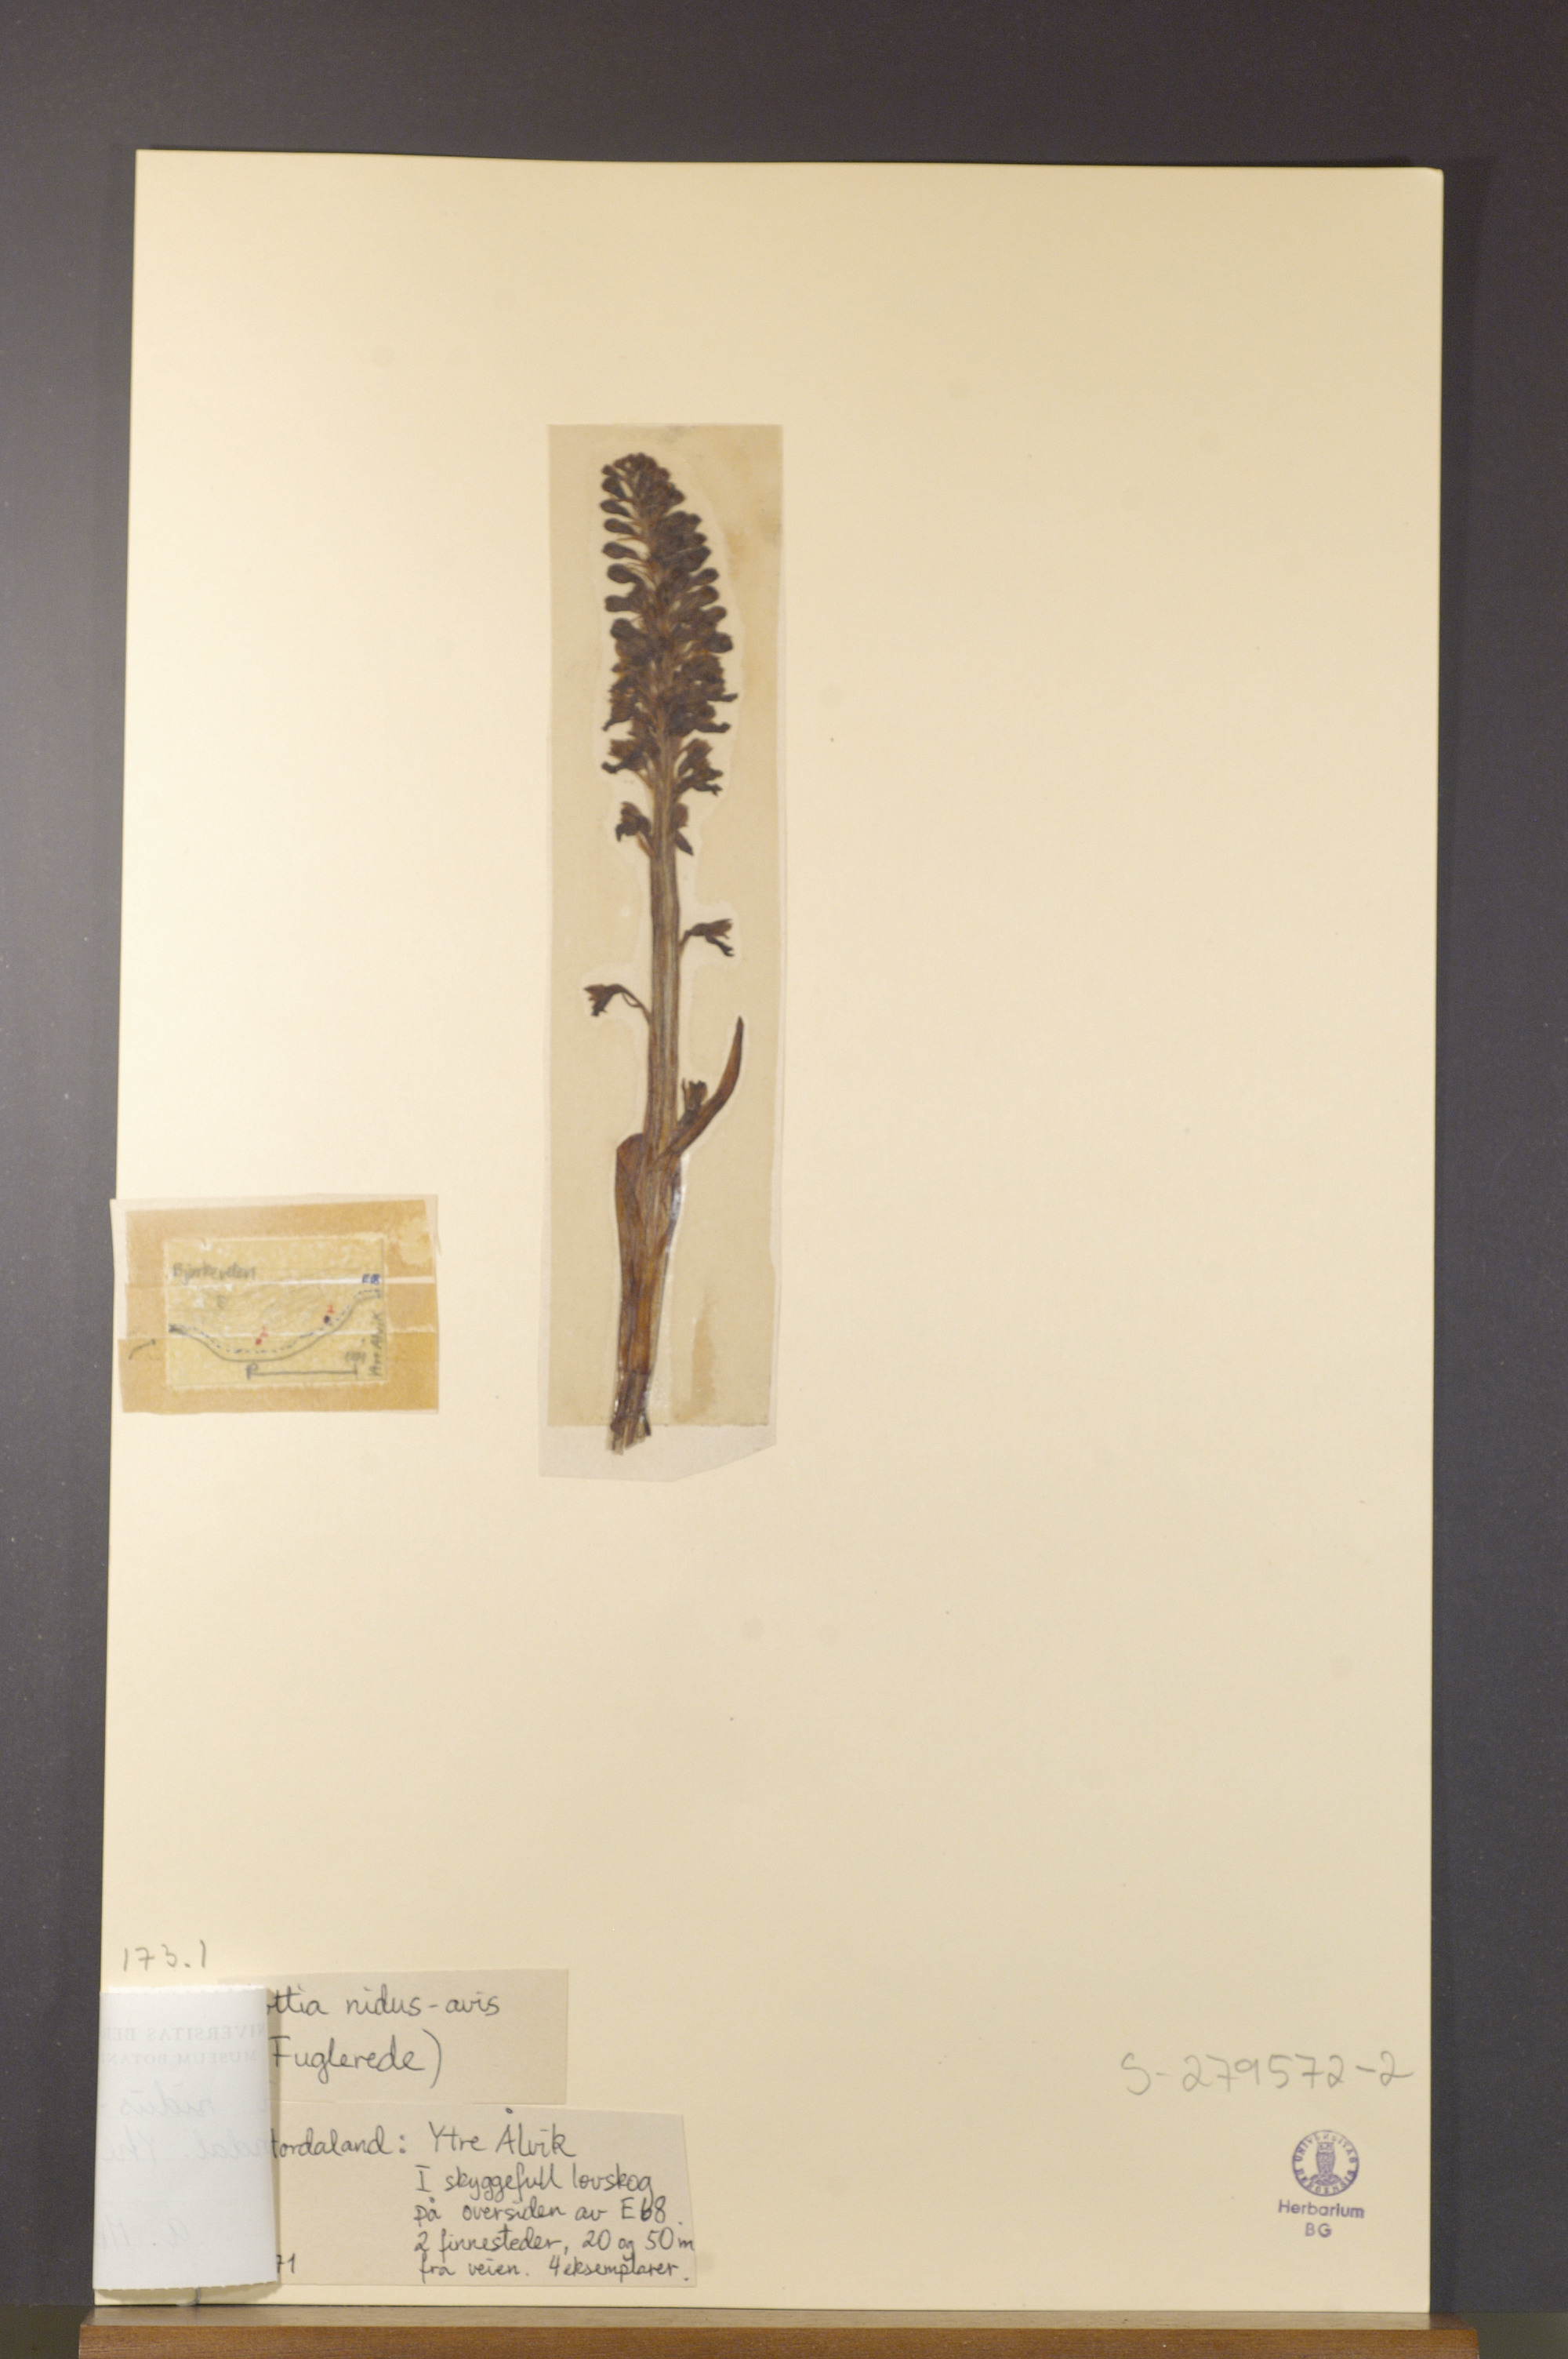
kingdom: Plantae
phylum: Tracheophyta
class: Liliopsida
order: Asparagales
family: Orchidaceae
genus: Neottia
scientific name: Neottia nidus-avis
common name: Bird's-nest orchid
